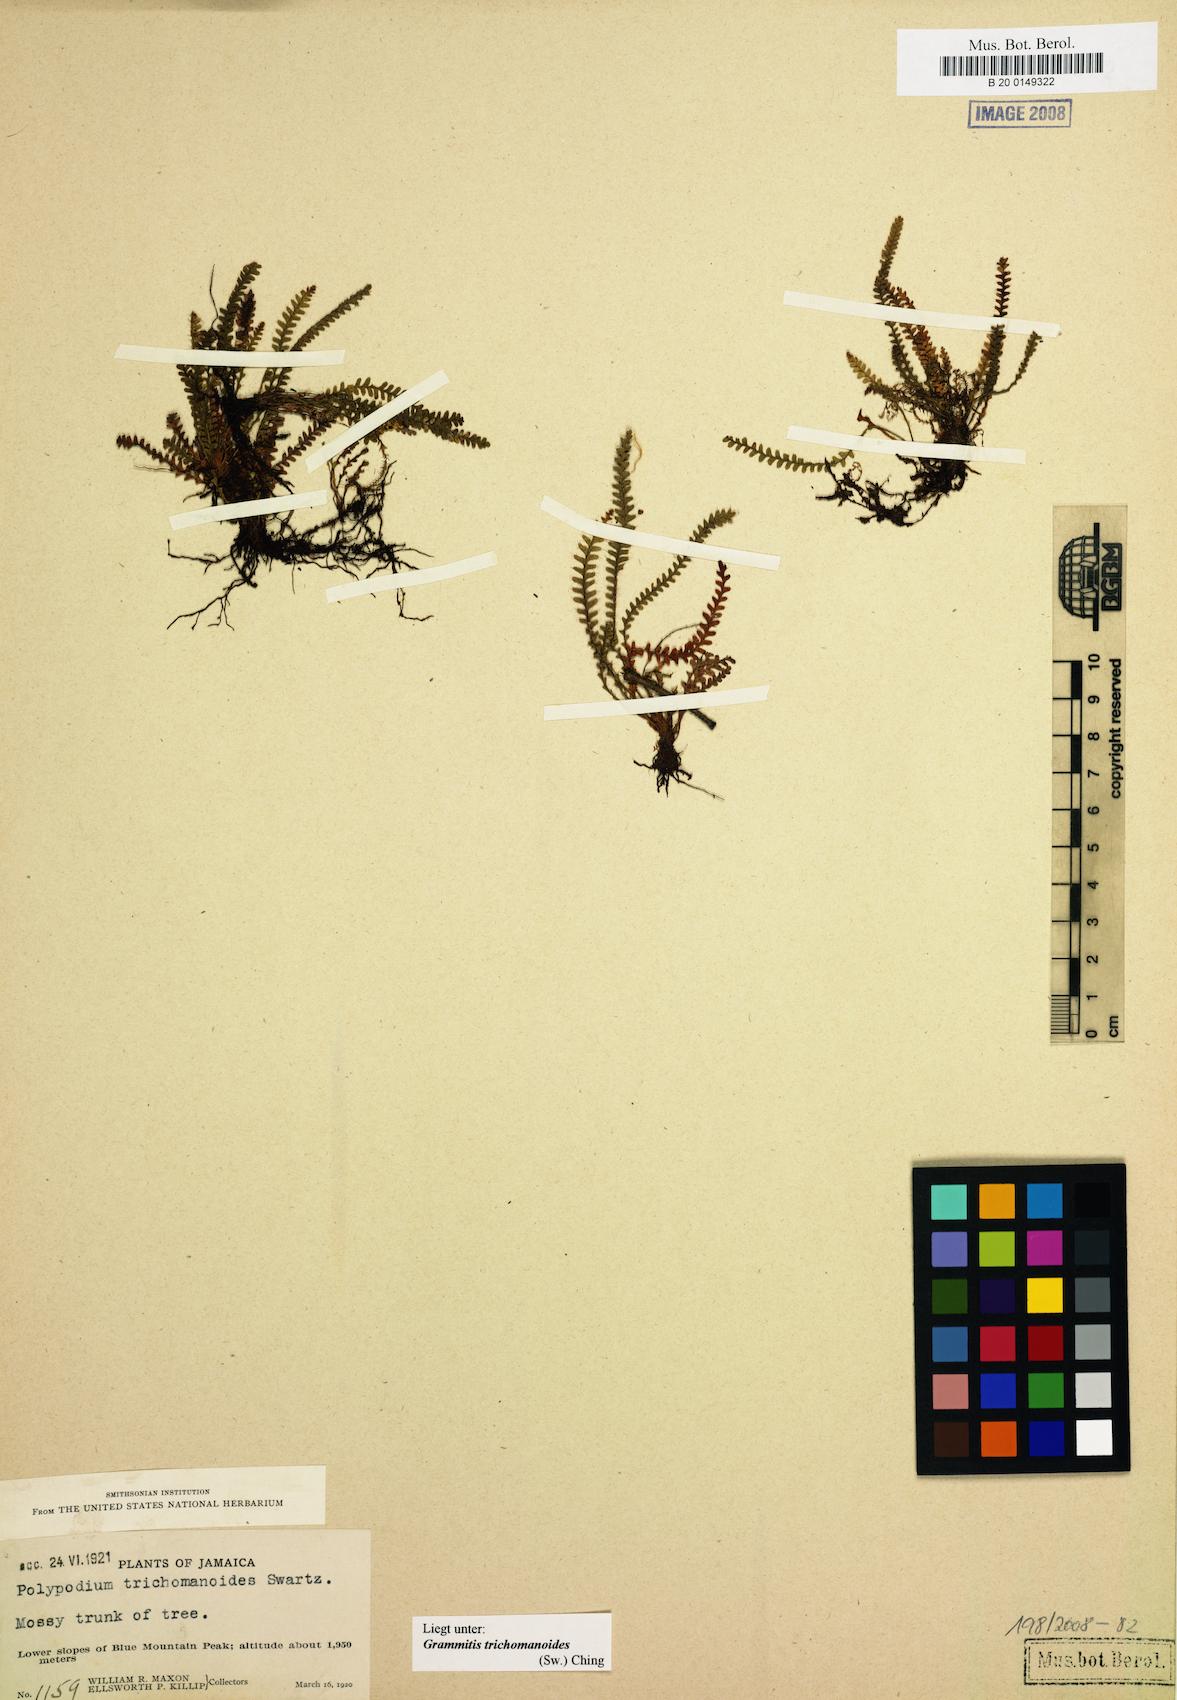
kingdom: Plantae
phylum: Tracheophyta
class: Polypodiopsida
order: Polypodiales
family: Polypodiaceae
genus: Moranopteris
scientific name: Moranopteris trichomanoides
